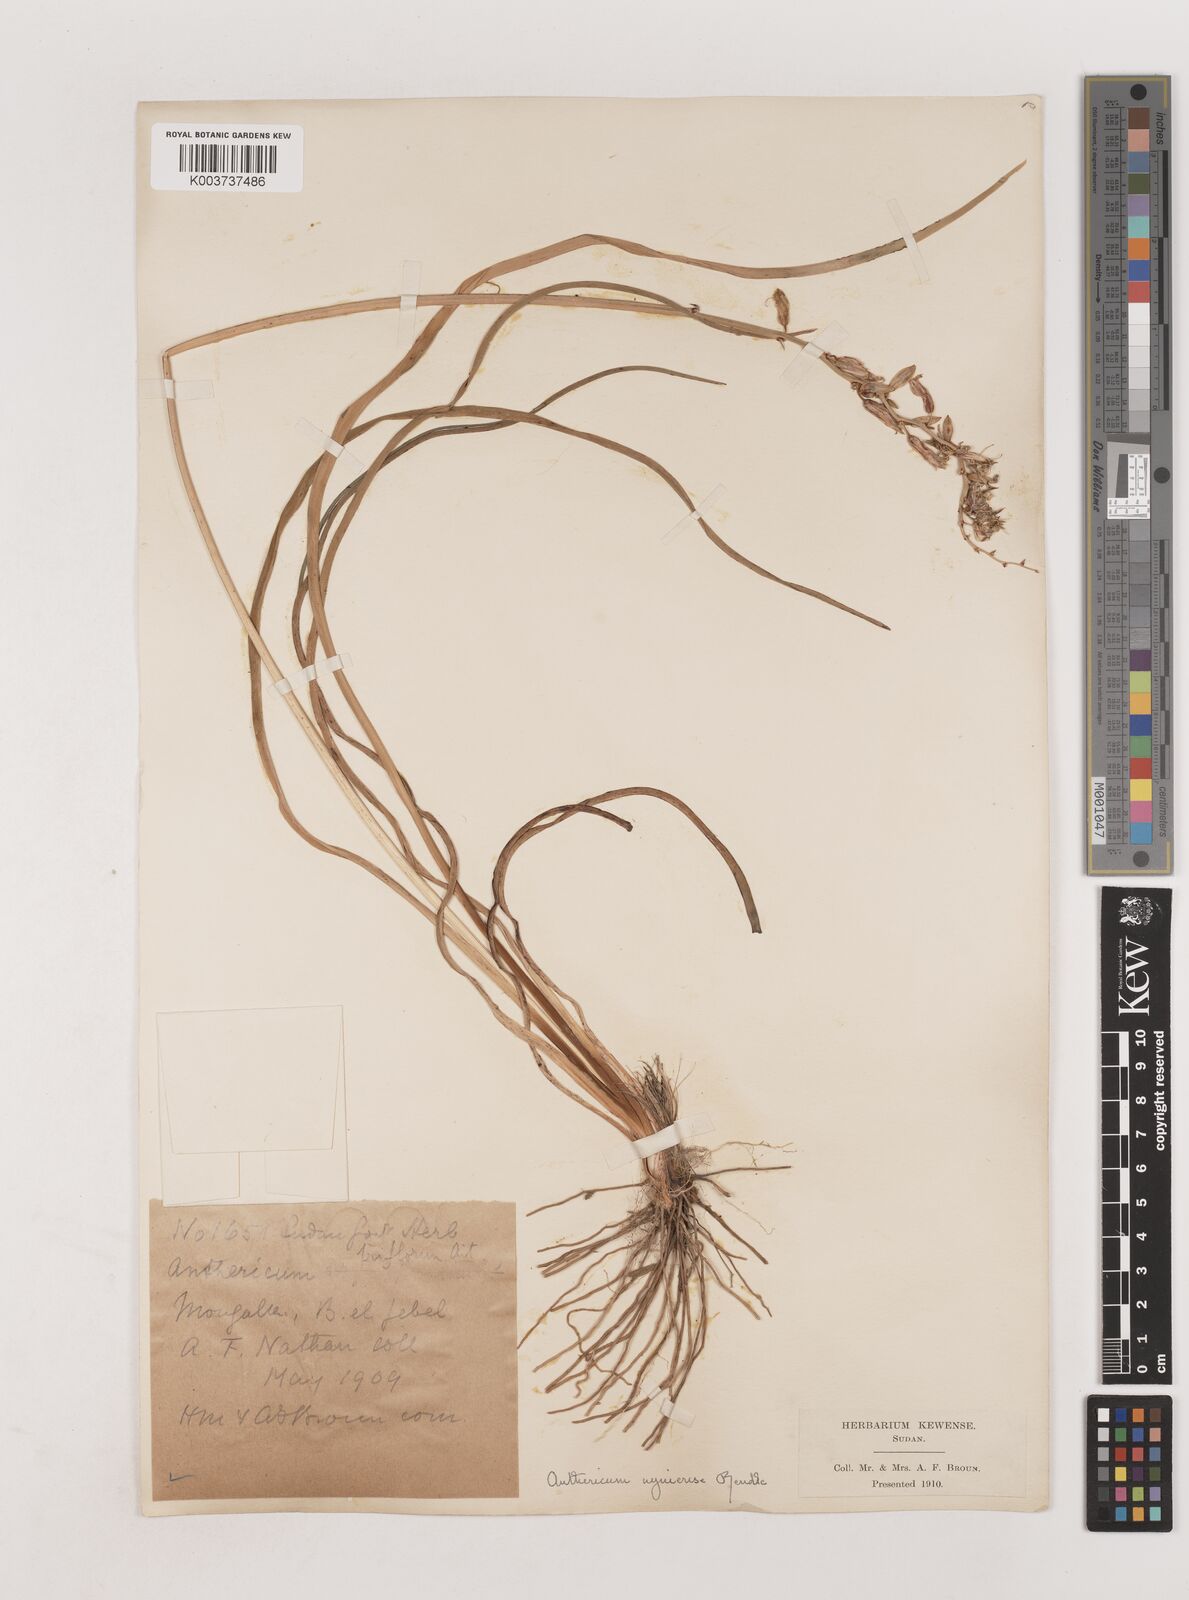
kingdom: Plantae
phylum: Tracheophyta
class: Liliopsida
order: Asparagales
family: Asparagaceae
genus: Chlorophytum
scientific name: Chlorophytum cameronii
